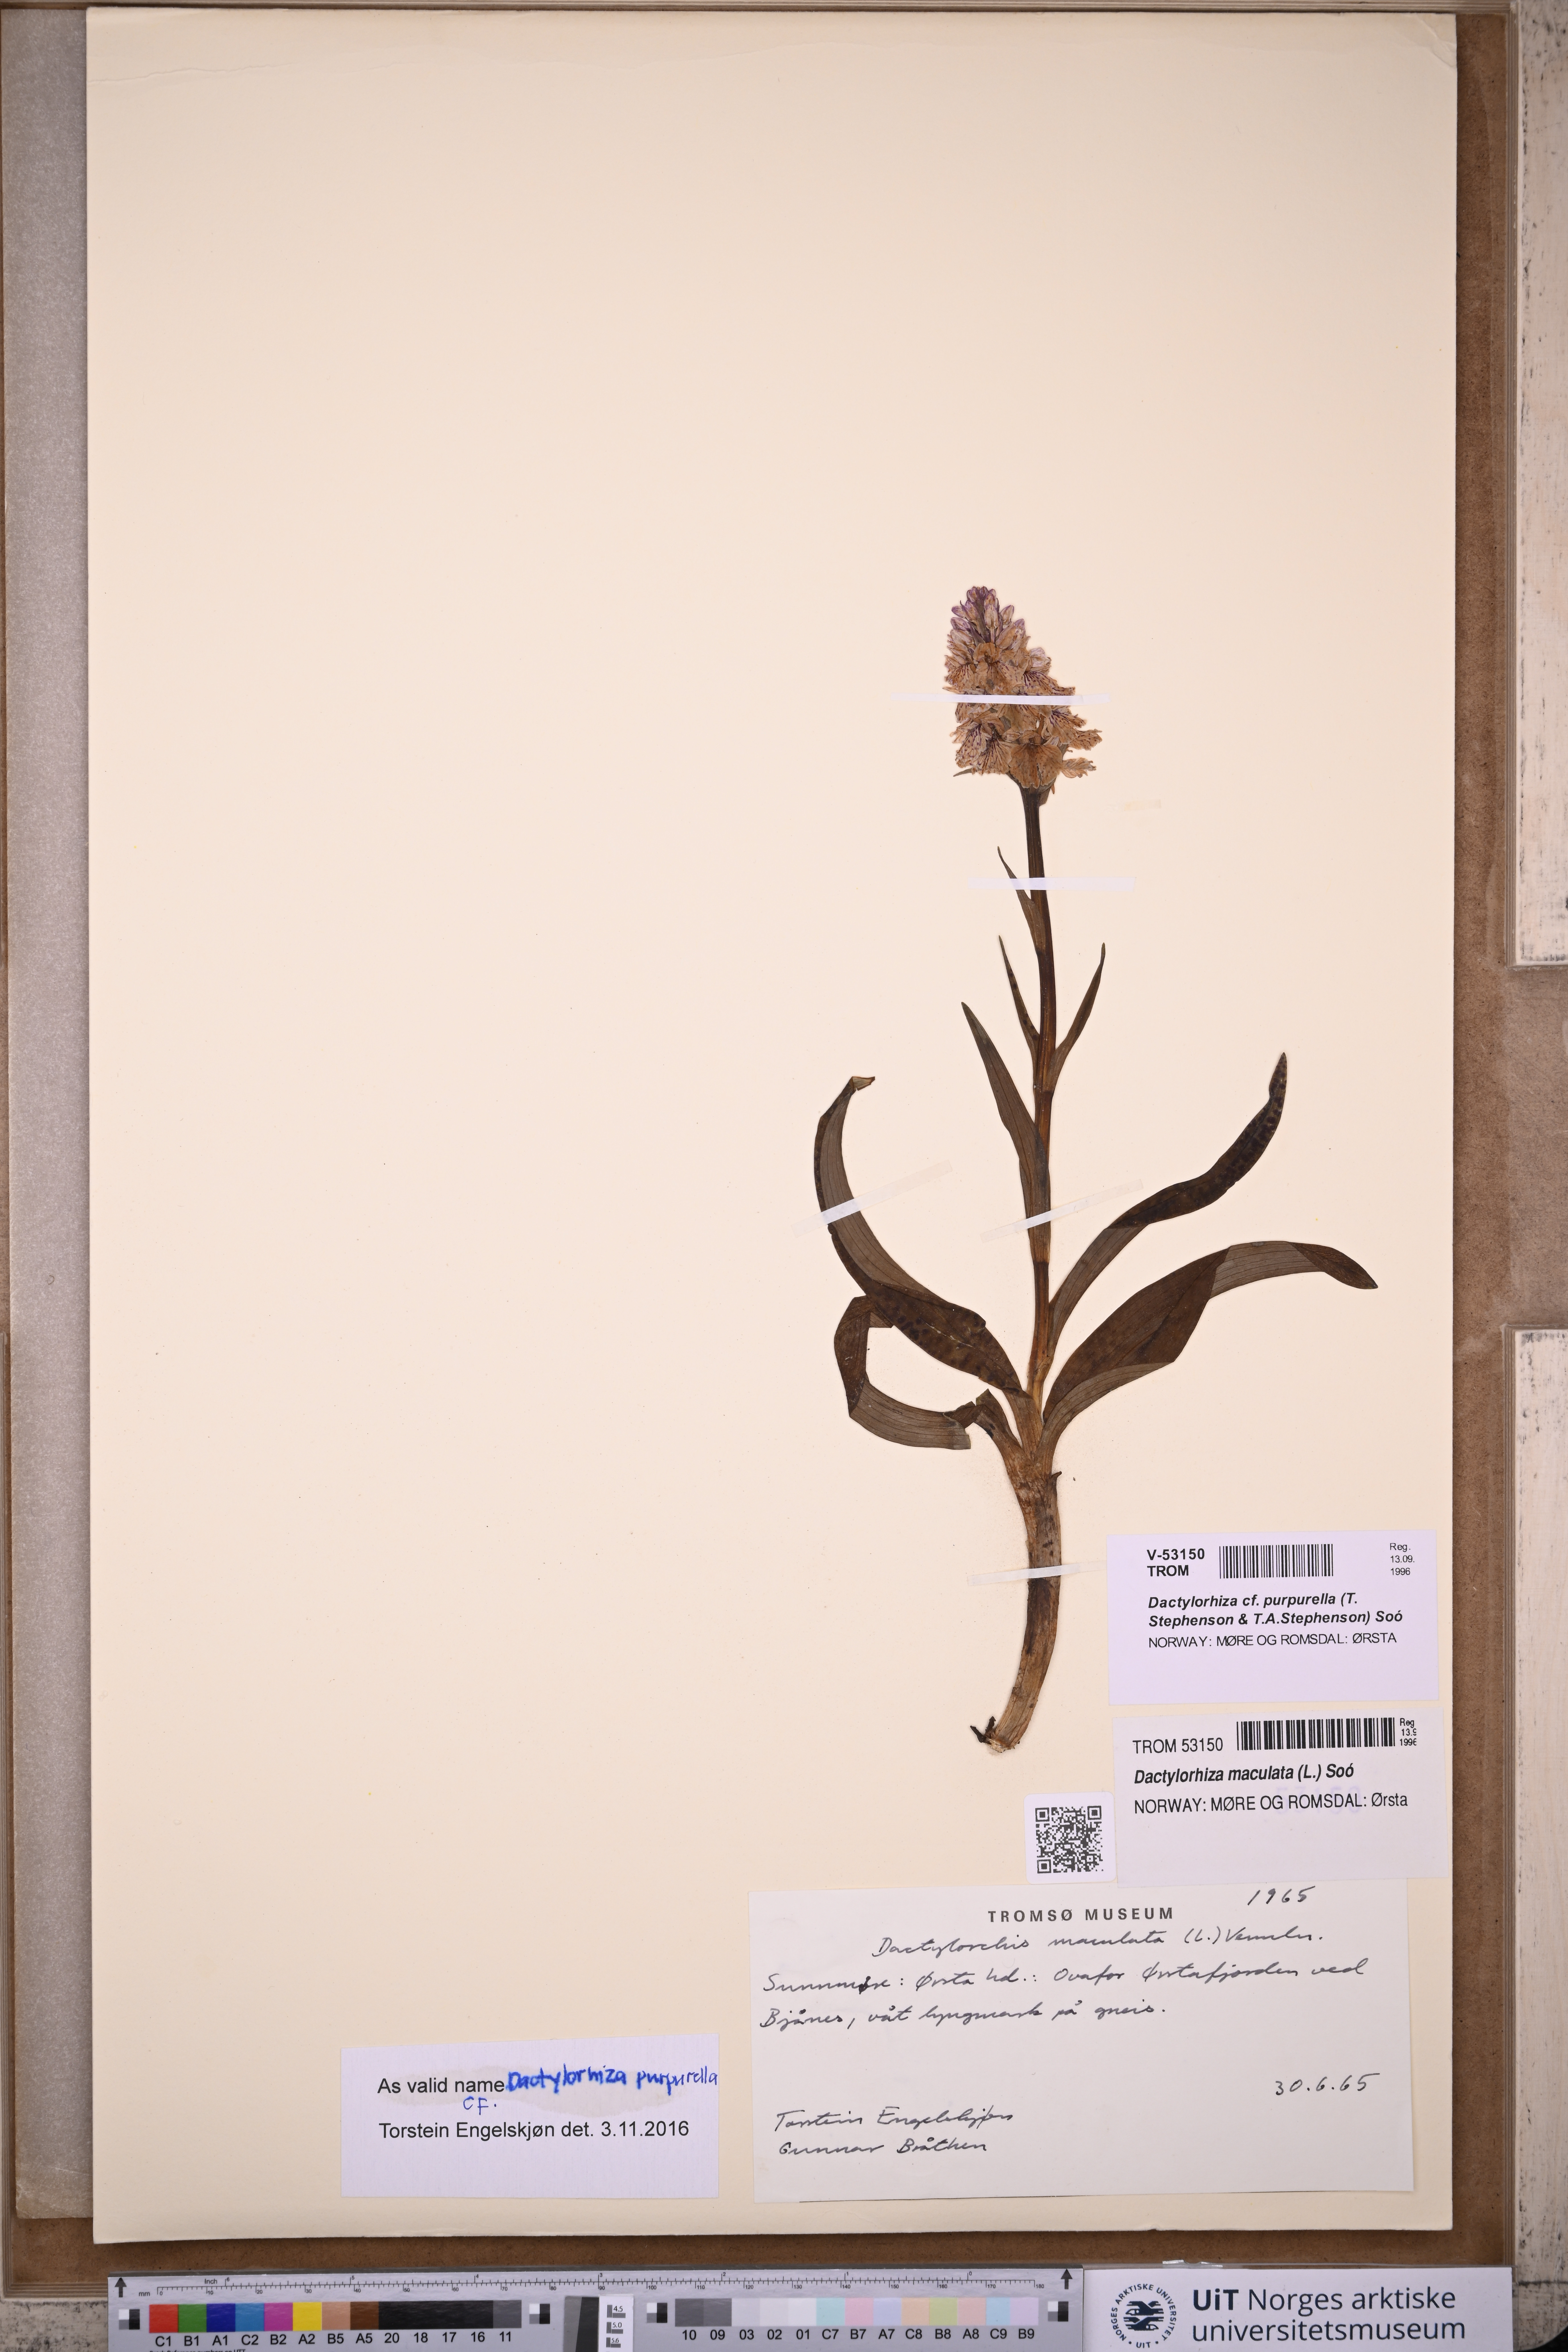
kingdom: Plantae
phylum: Tracheophyta
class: Liliopsida
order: Asparagales
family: Orchidaceae
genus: Dactylorhiza
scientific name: Dactylorhiza majalis
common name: Marsh orchid
